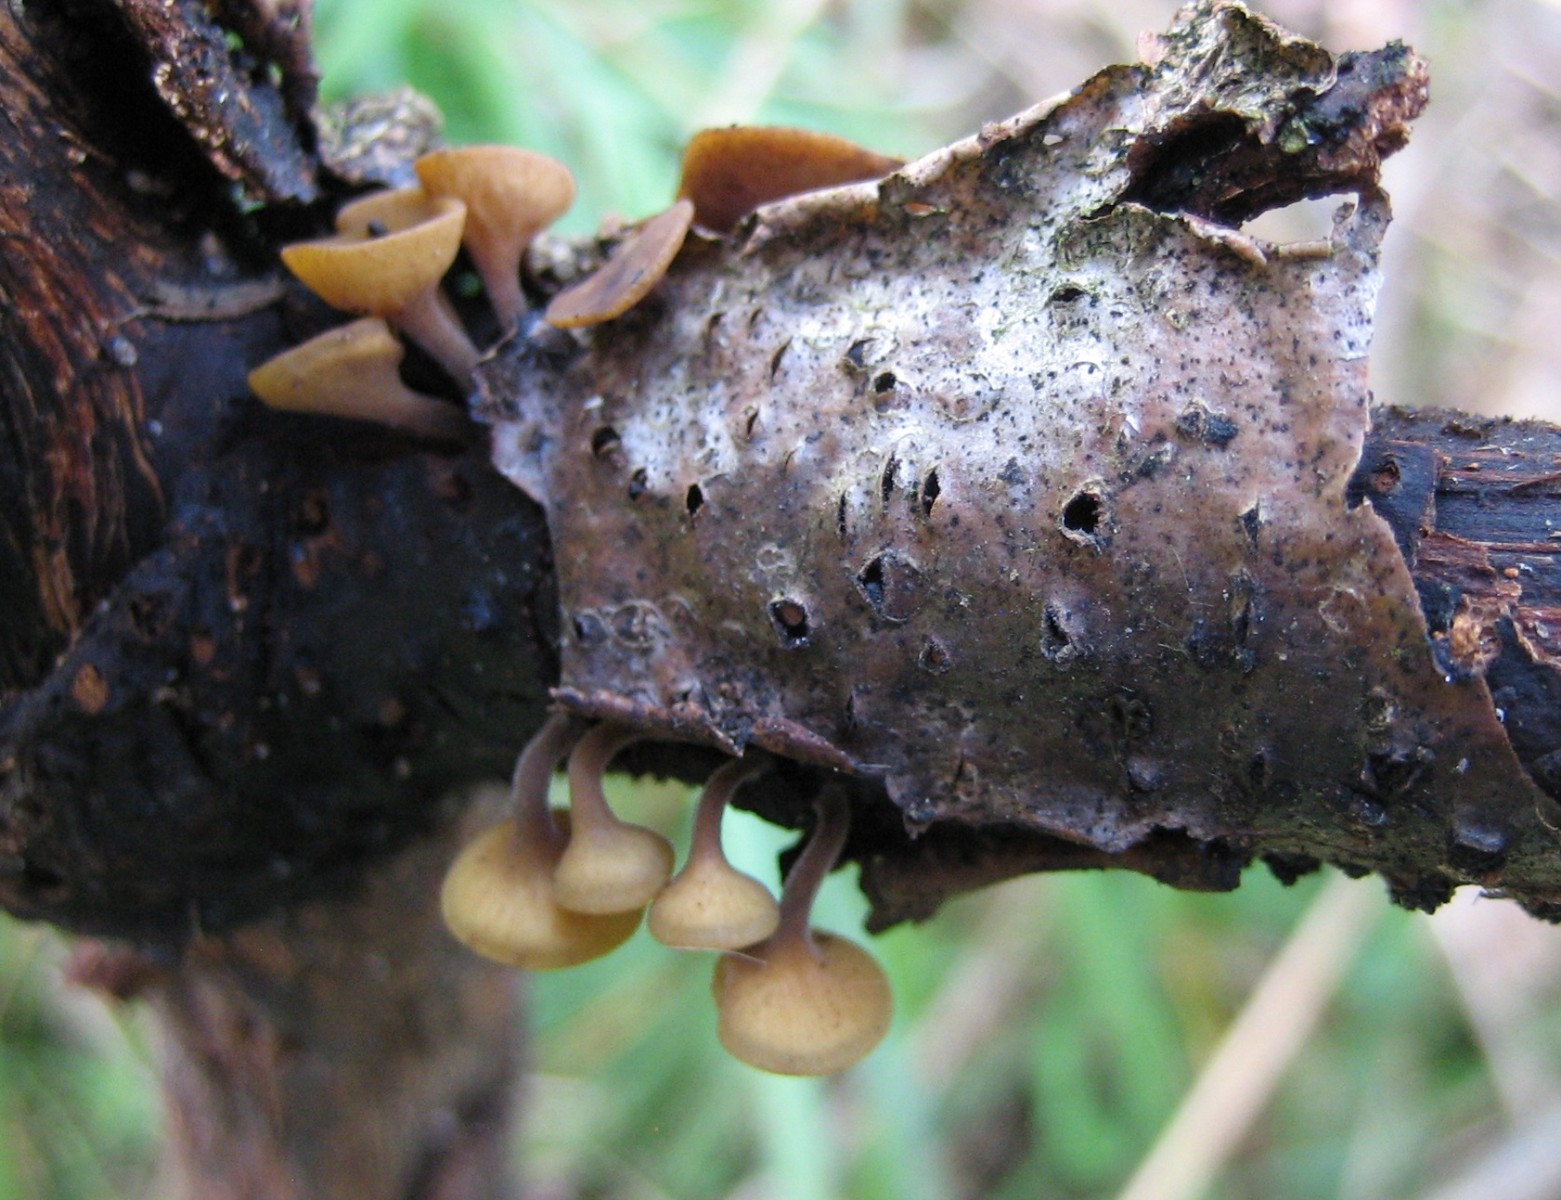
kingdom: Fungi
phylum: Ascomycota
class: Leotiomycetes
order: Helotiales
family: Rutstroemiaceae
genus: Rutstroemia
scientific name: Rutstroemia firma
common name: gren-brunskive
